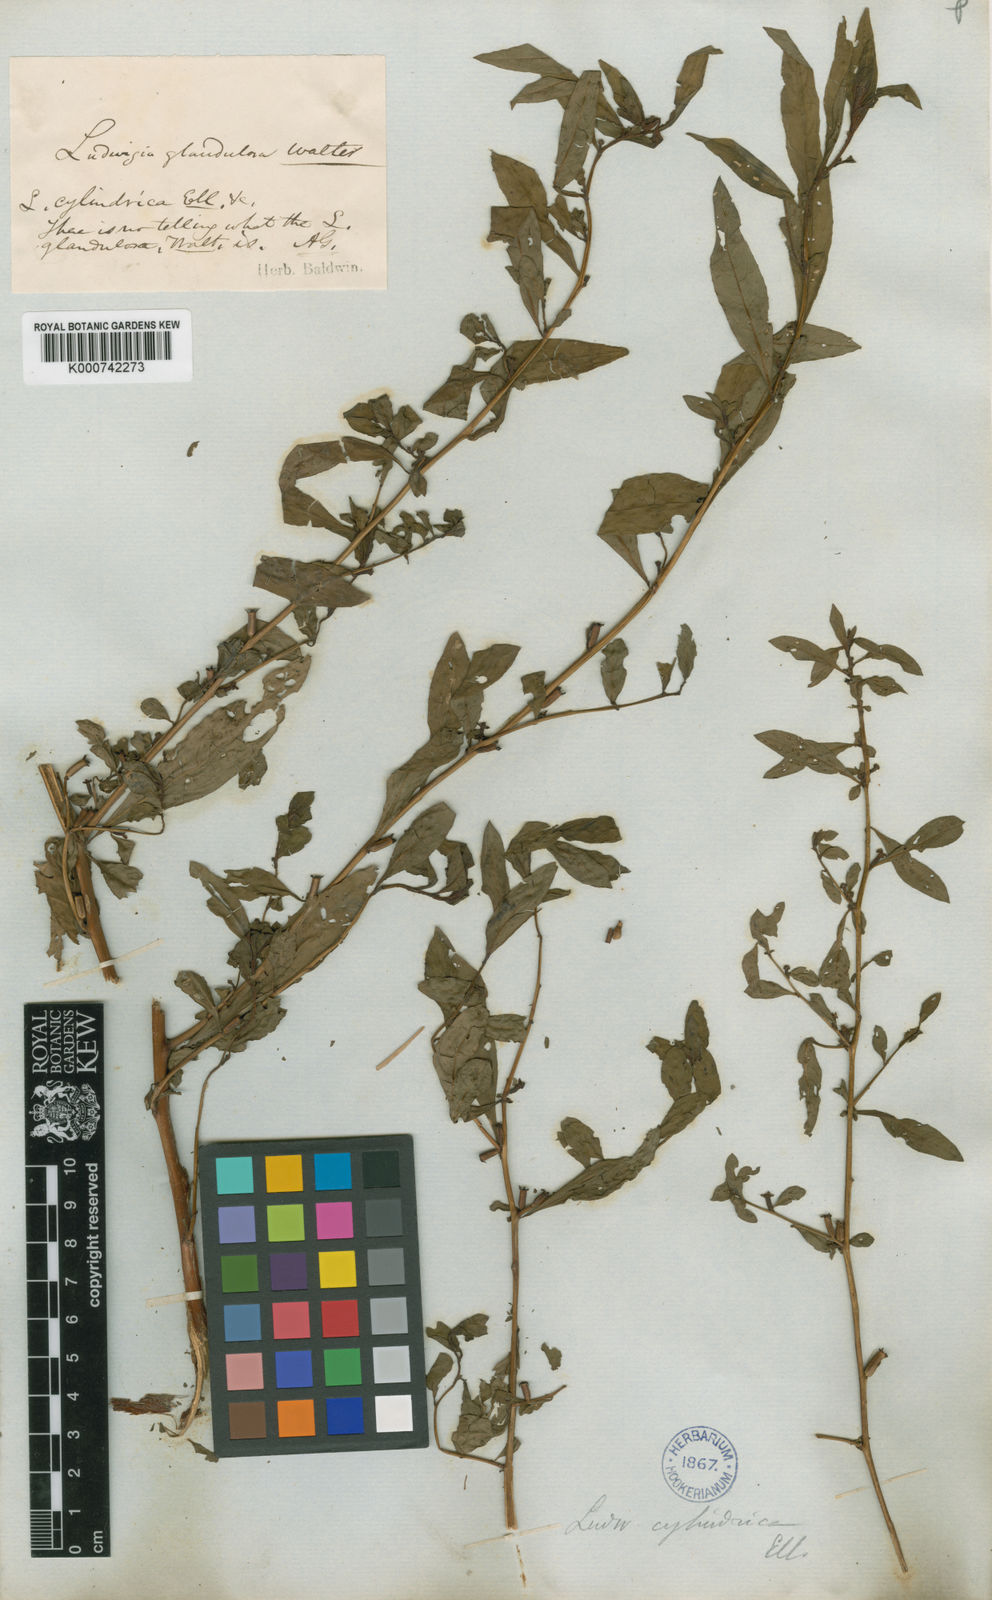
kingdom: Plantae
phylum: Tracheophyta
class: Magnoliopsida
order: Myrtales
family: Onagraceae
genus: Ludwigia
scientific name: Ludwigia glandulosa
